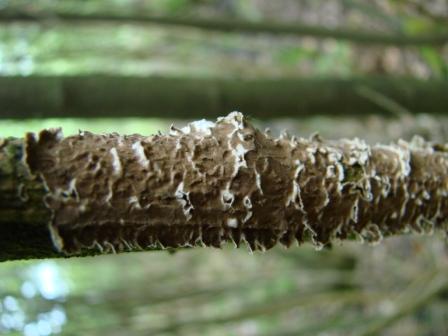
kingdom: Fungi
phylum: Basidiomycota
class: Agaricomycetes
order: Hymenochaetales
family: Hymenochaetaceae
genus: Hydnoporia
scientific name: Hydnoporia tabacina
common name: tobaksbrun ruslædersvamp
